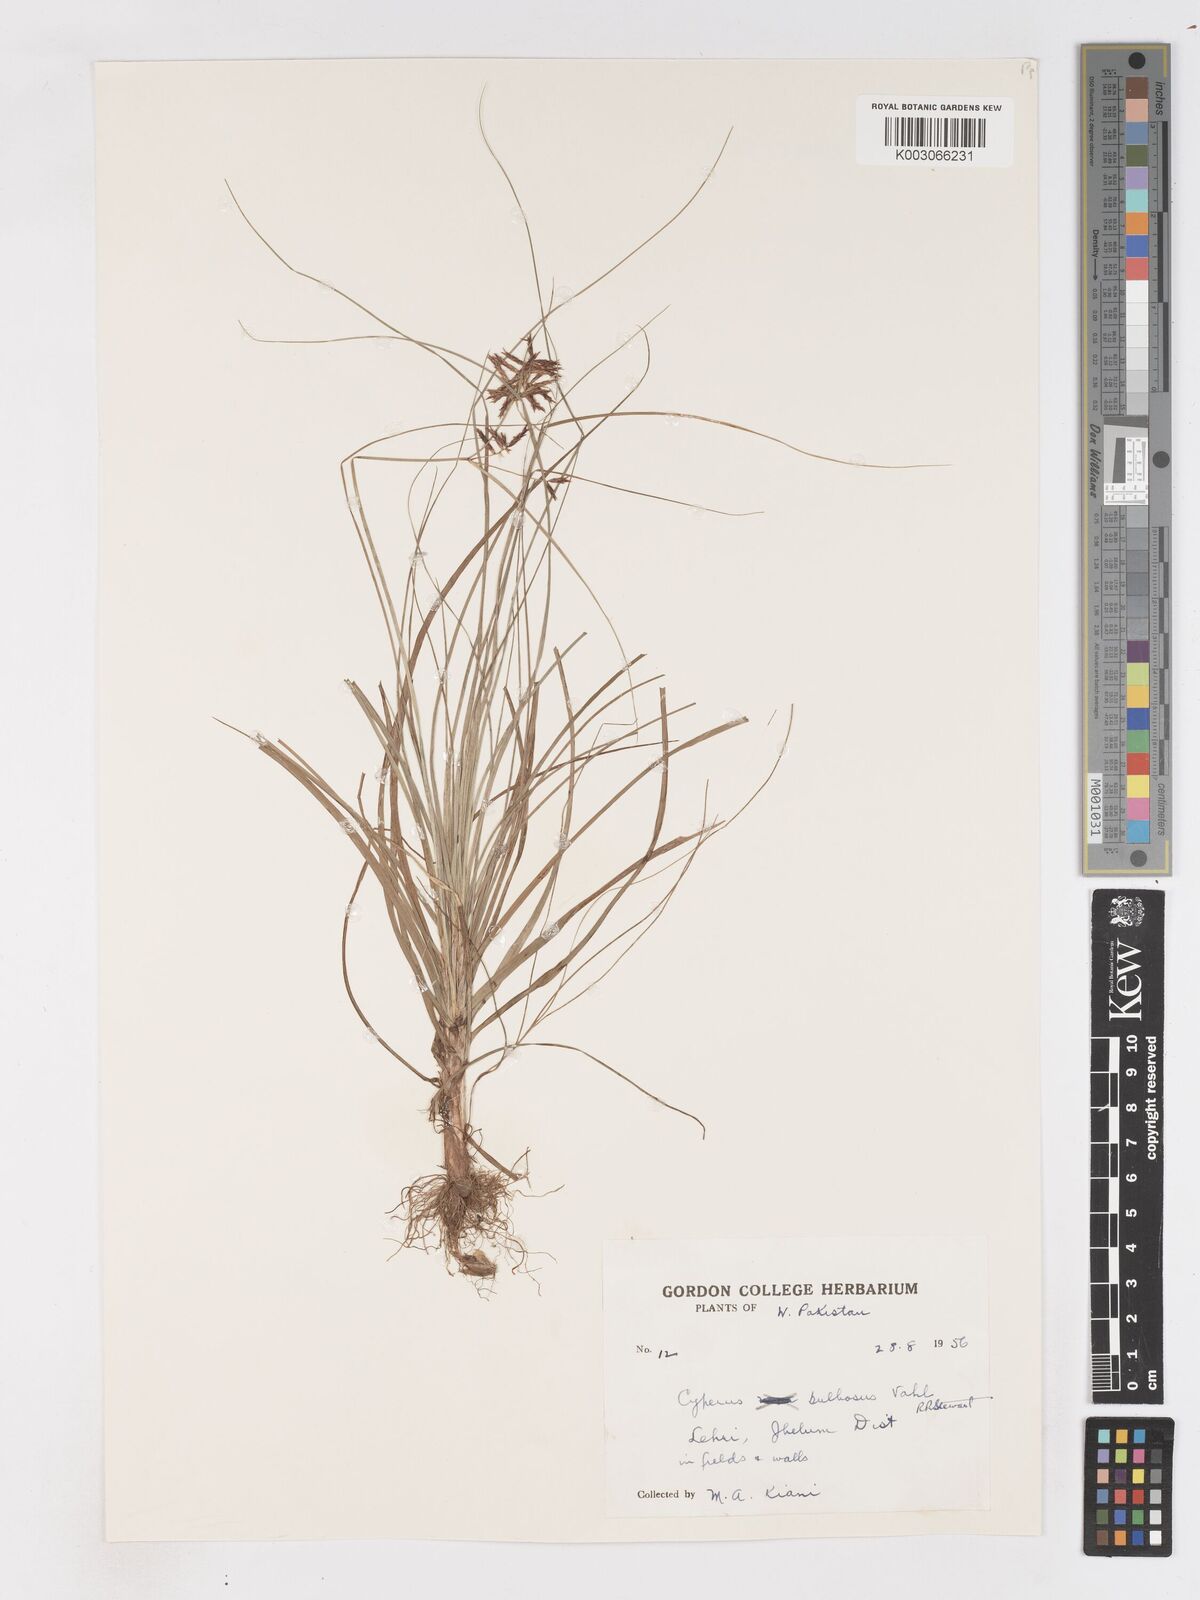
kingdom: Plantae
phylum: Tracheophyta
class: Liliopsida
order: Poales
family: Cyperaceae
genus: Cyperus
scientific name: Cyperus bulbosus
